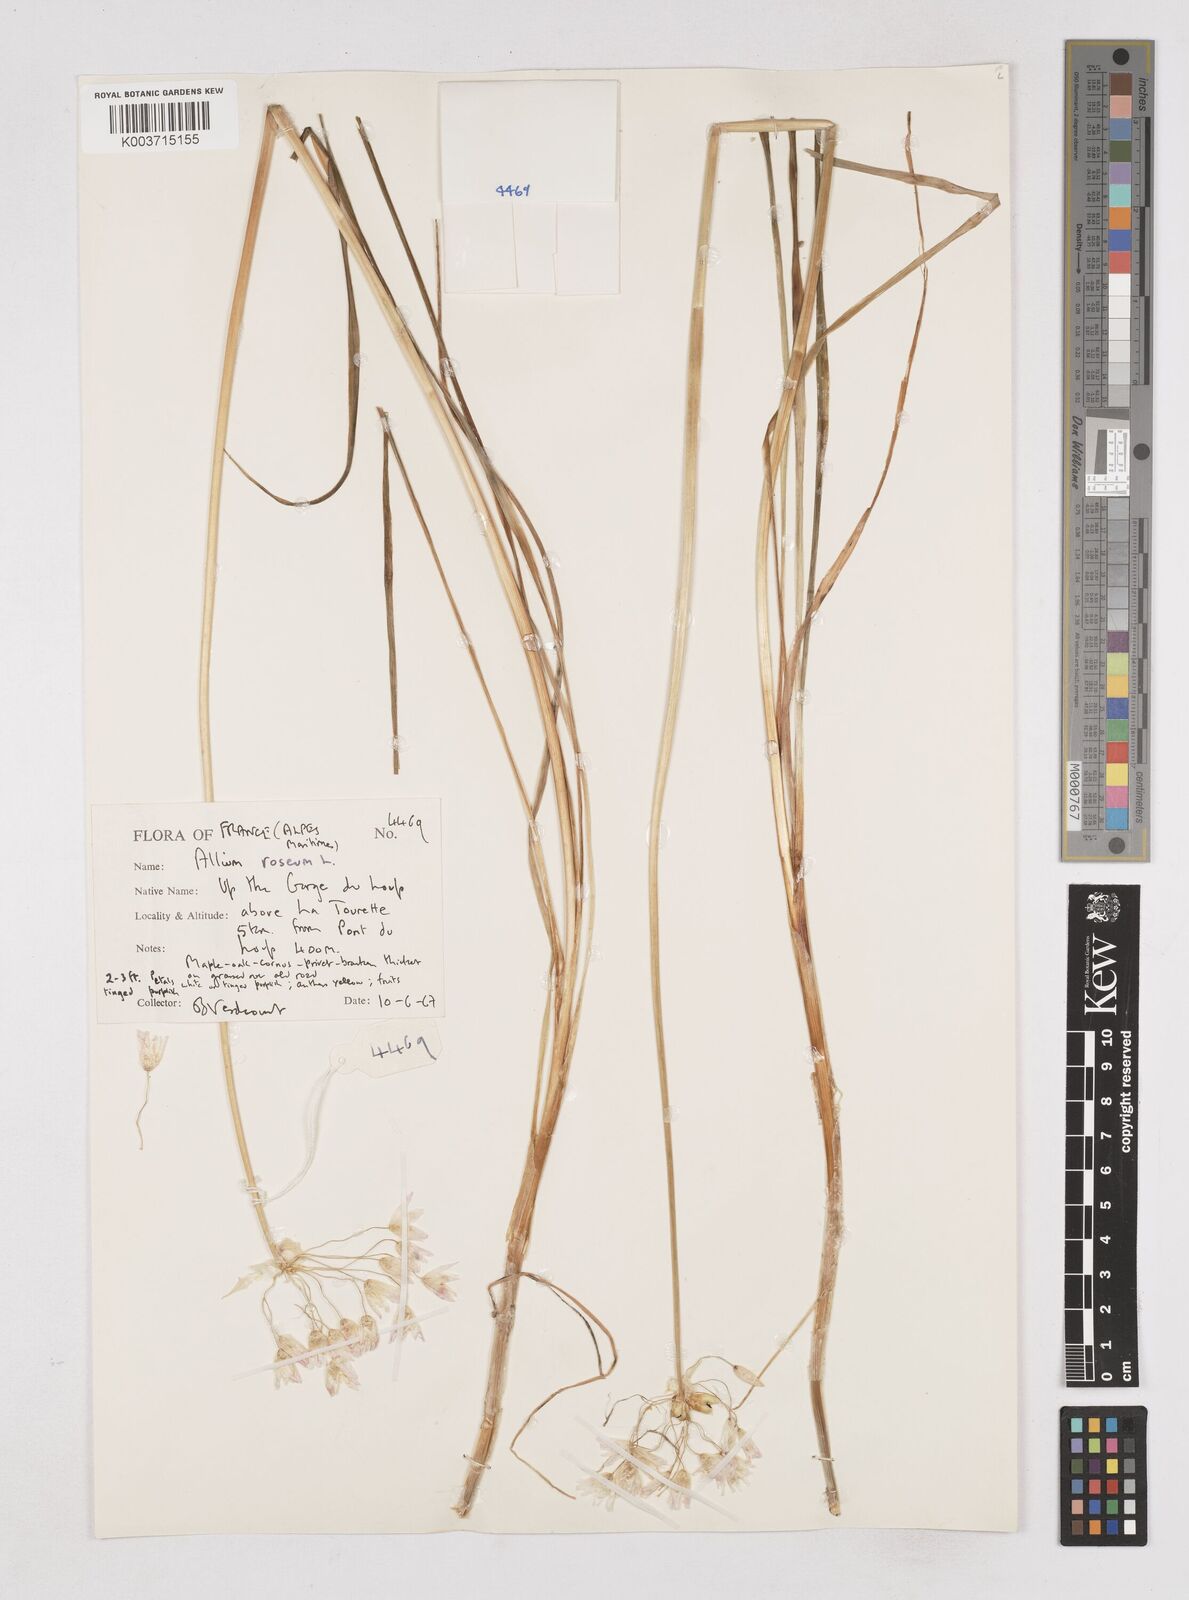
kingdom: Plantae
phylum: Tracheophyta
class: Liliopsida
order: Asparagales
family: Amaryllidaceae
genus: Allium
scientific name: Allium roseum
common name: Rosy garlic
